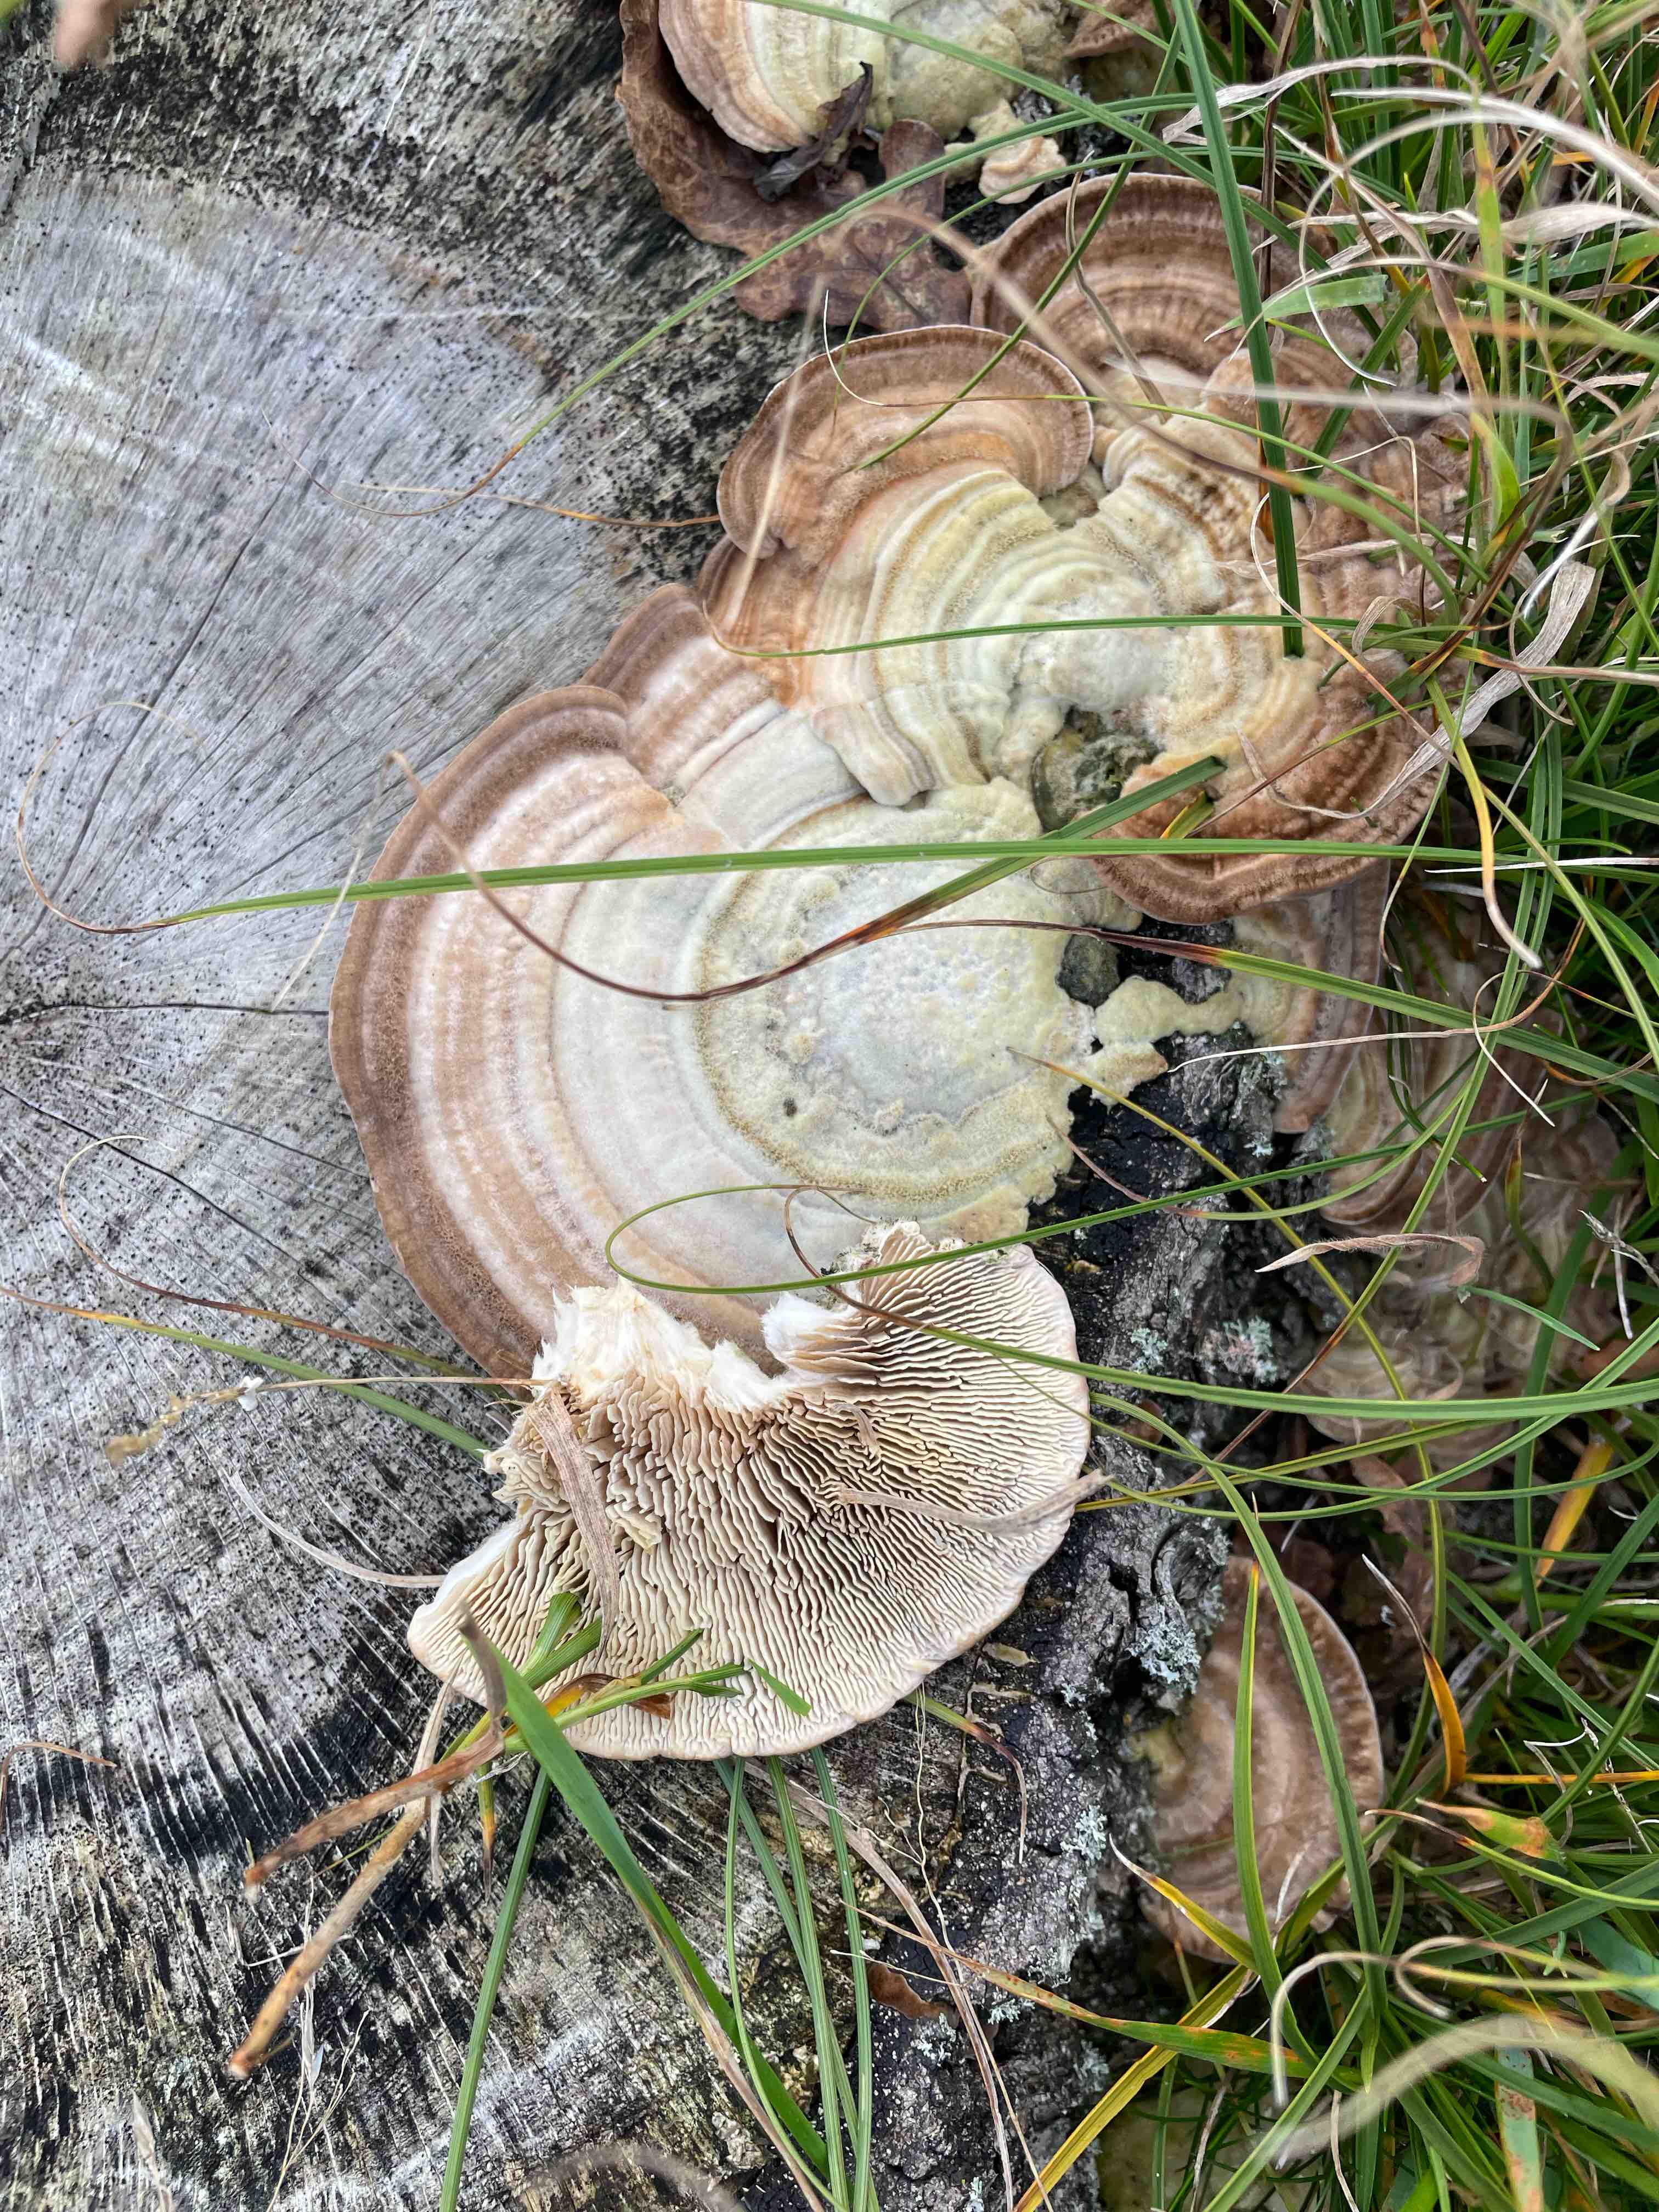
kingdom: Fungi
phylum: Basidiomycota
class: Agaricomycetes
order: Polyporales
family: Polyporaceae
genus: Lenzites
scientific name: Lenzites betulinus
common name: birke-læderporesvamp
